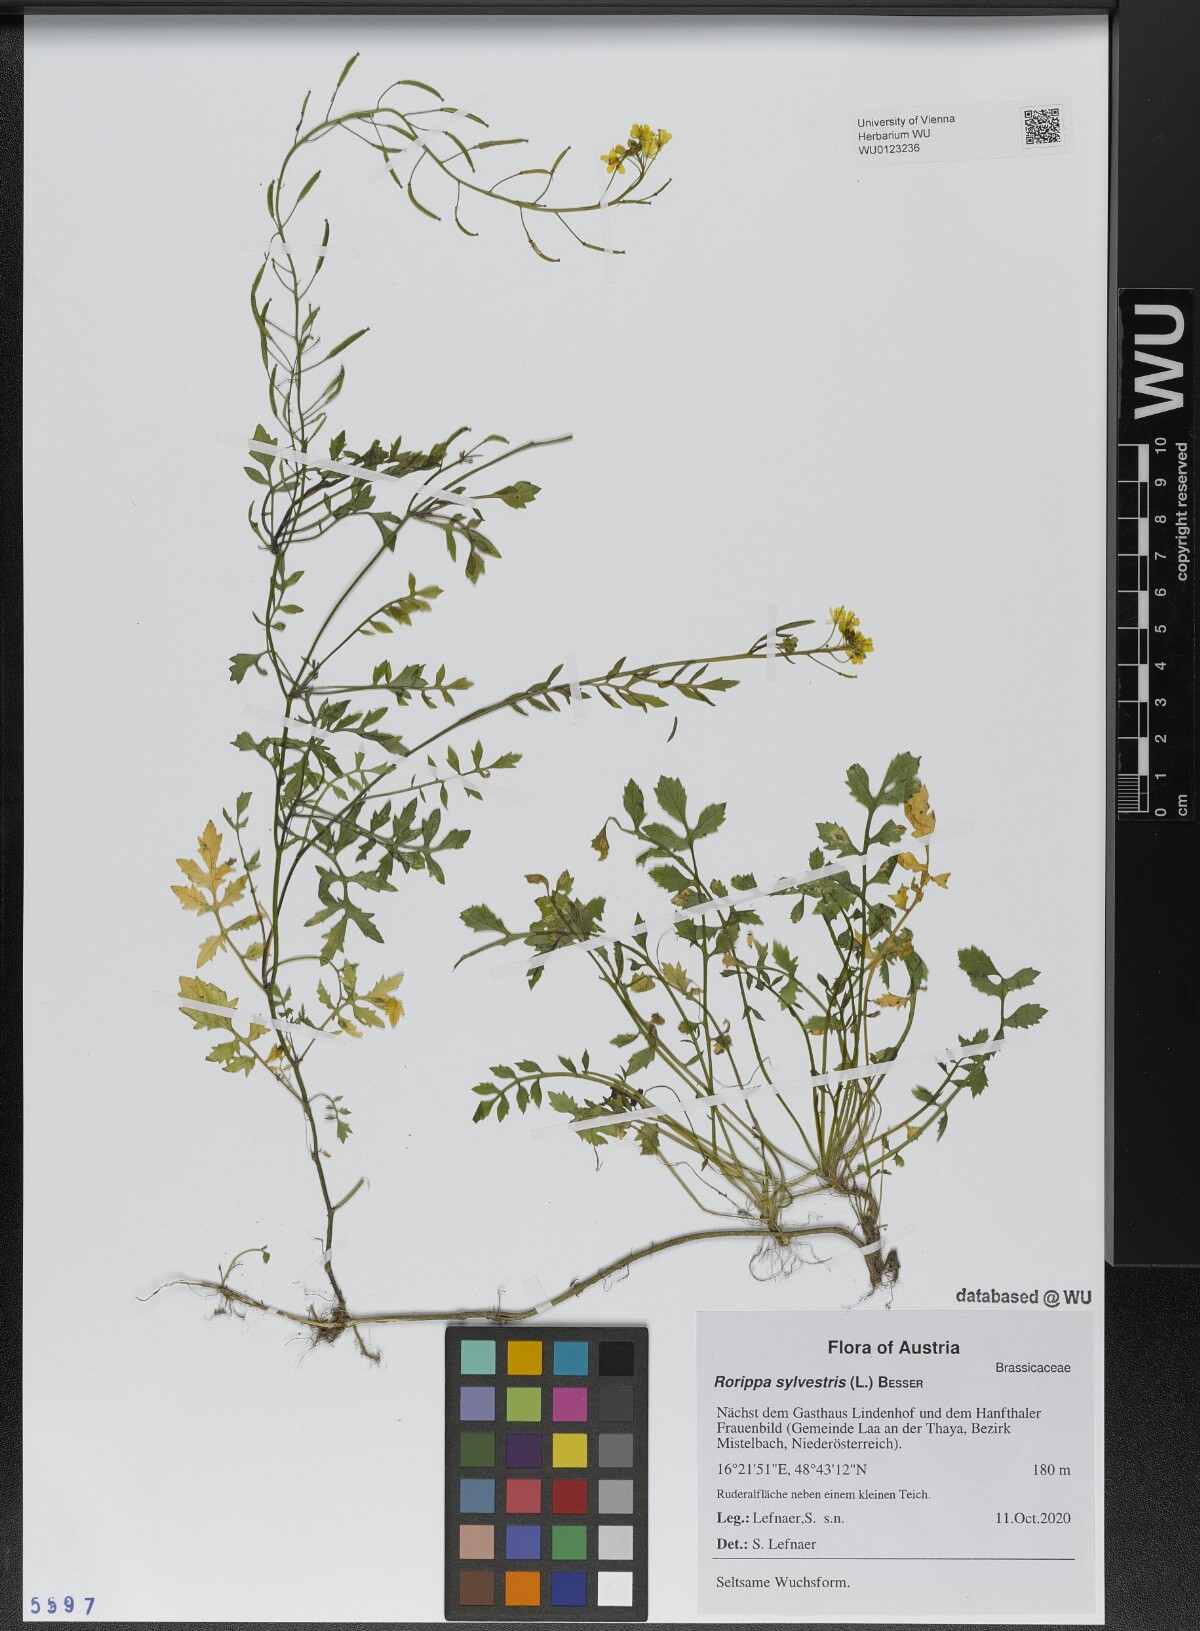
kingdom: Plantae
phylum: Tracheophyta
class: Magnoliopsida
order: Brassicales
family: Brassicaceae
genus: Rorippa
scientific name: Rorippa sylvestris
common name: Creeping yellowcress
